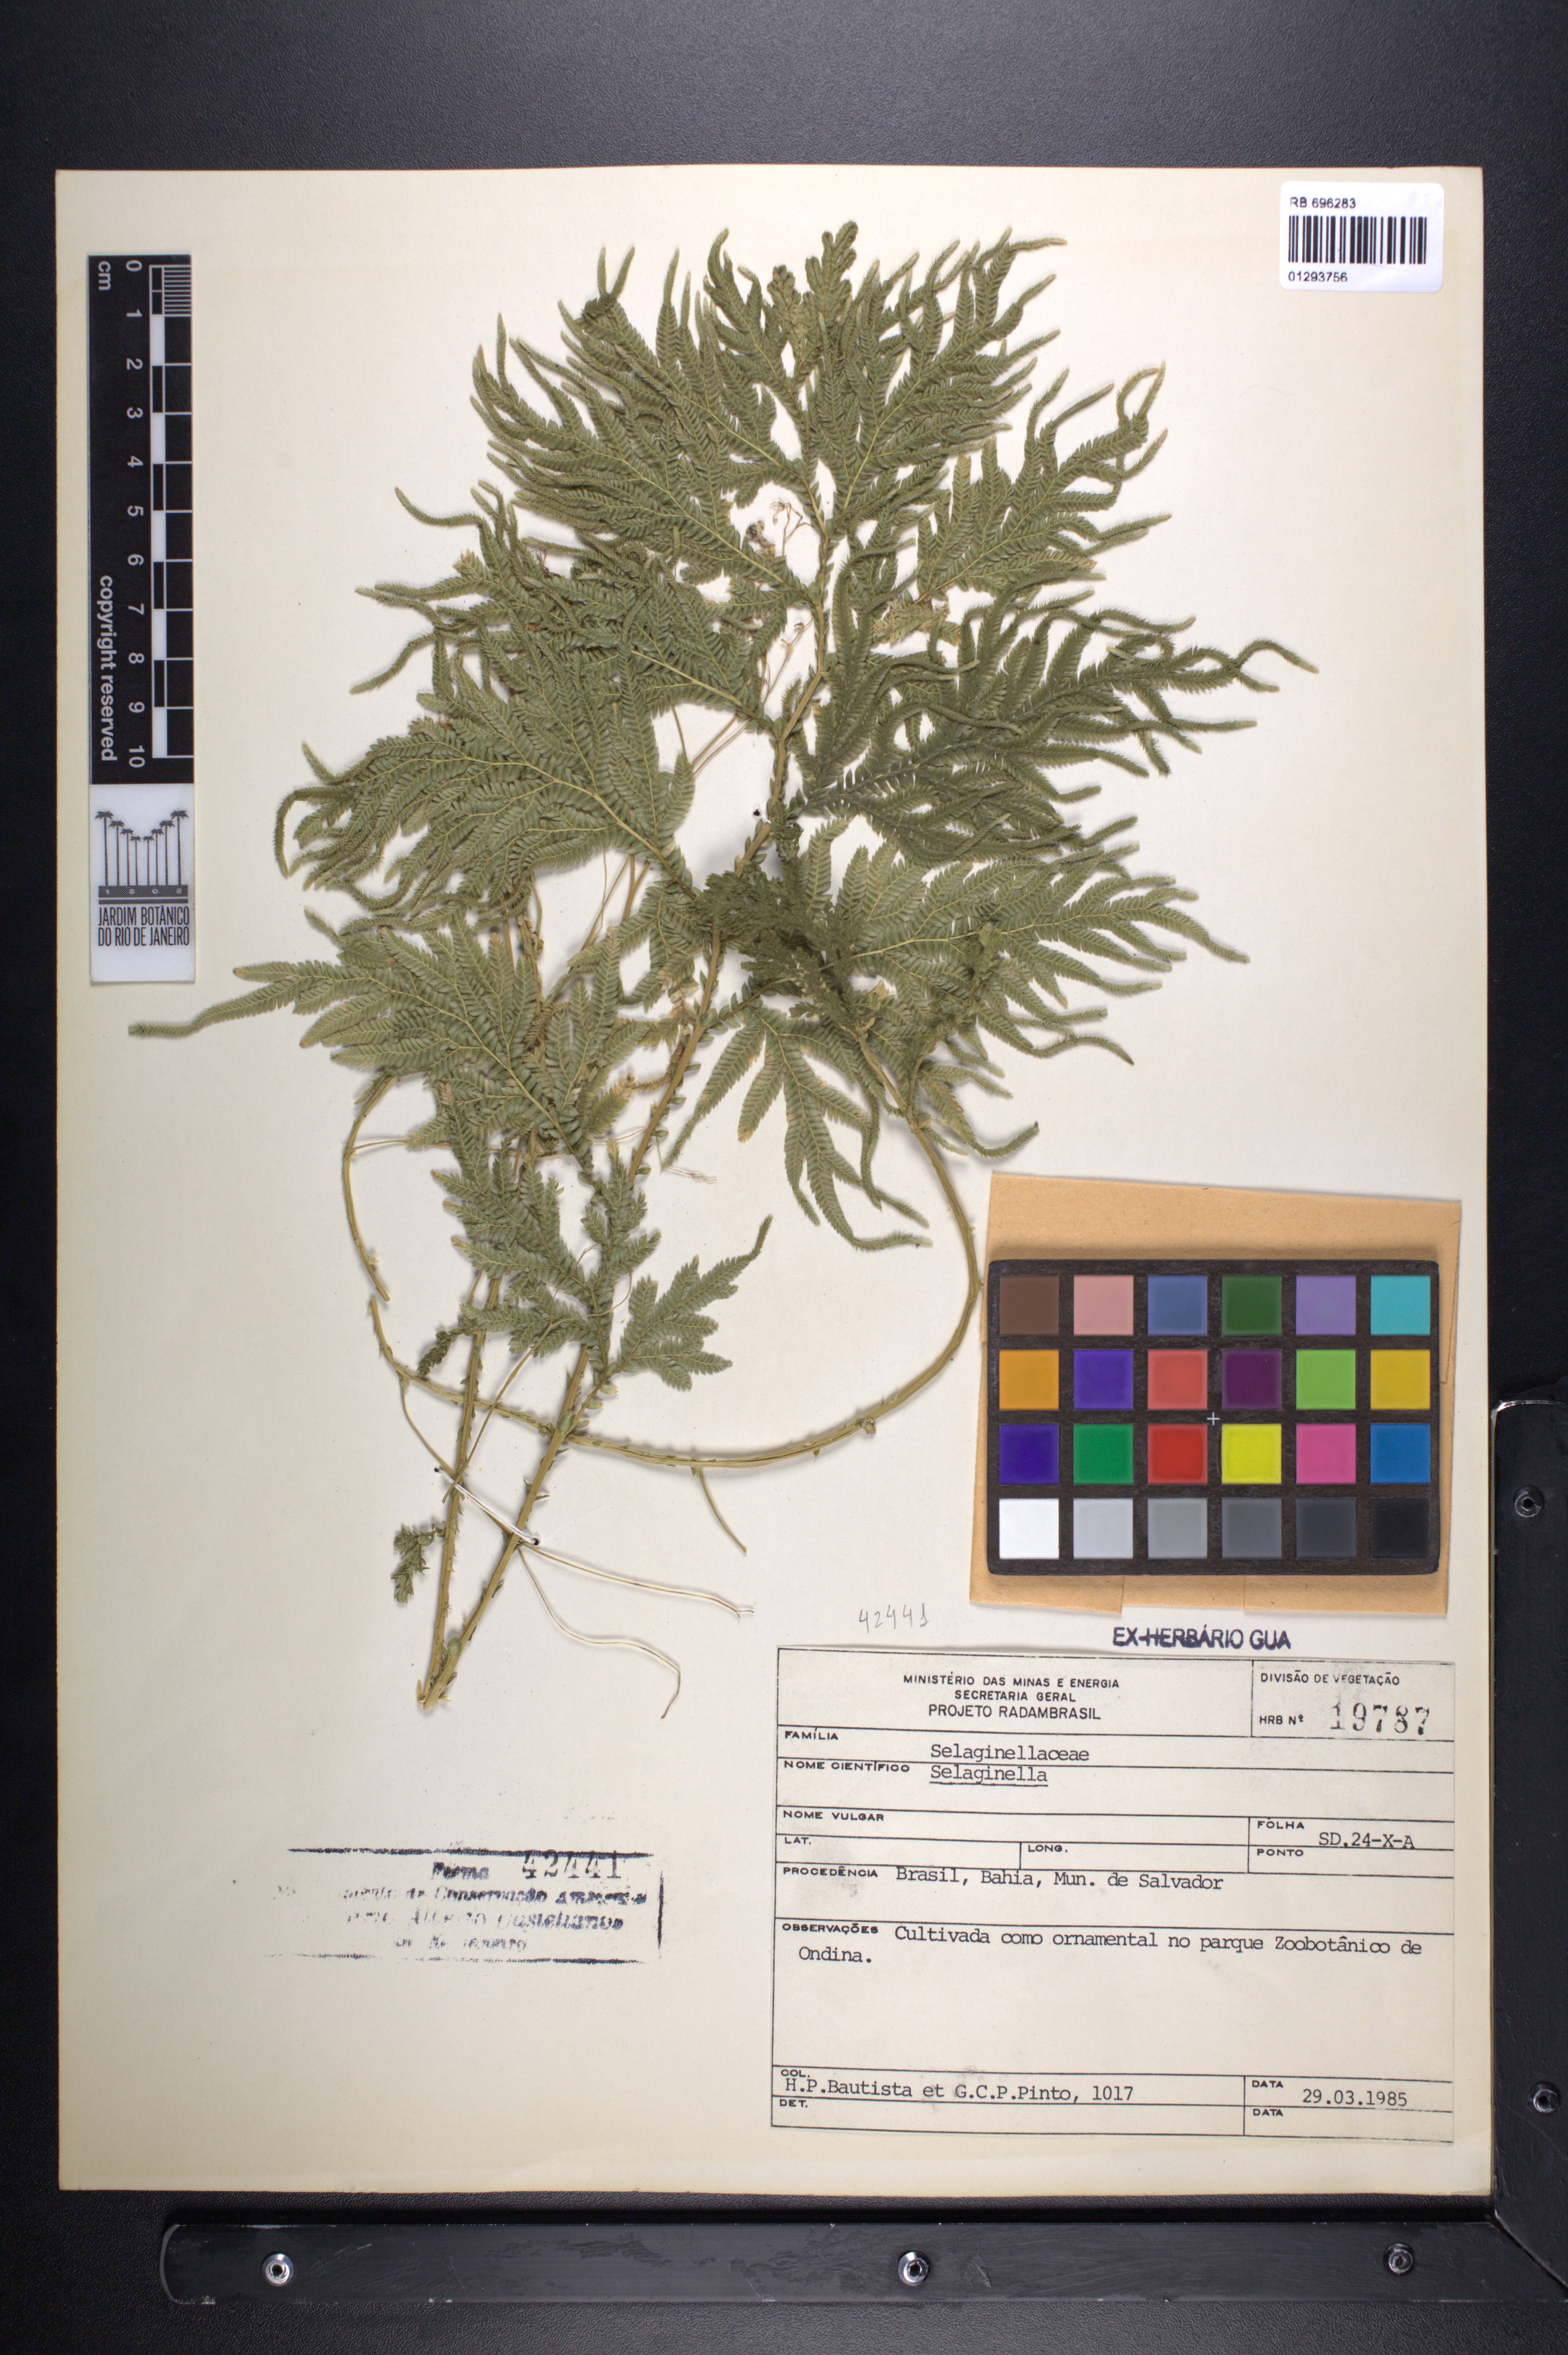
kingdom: Plantae
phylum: Tracheophyta
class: Lycopodiopsida
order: Selaginellales
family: Selaginellaceae
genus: Selaginella
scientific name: Selaginella
